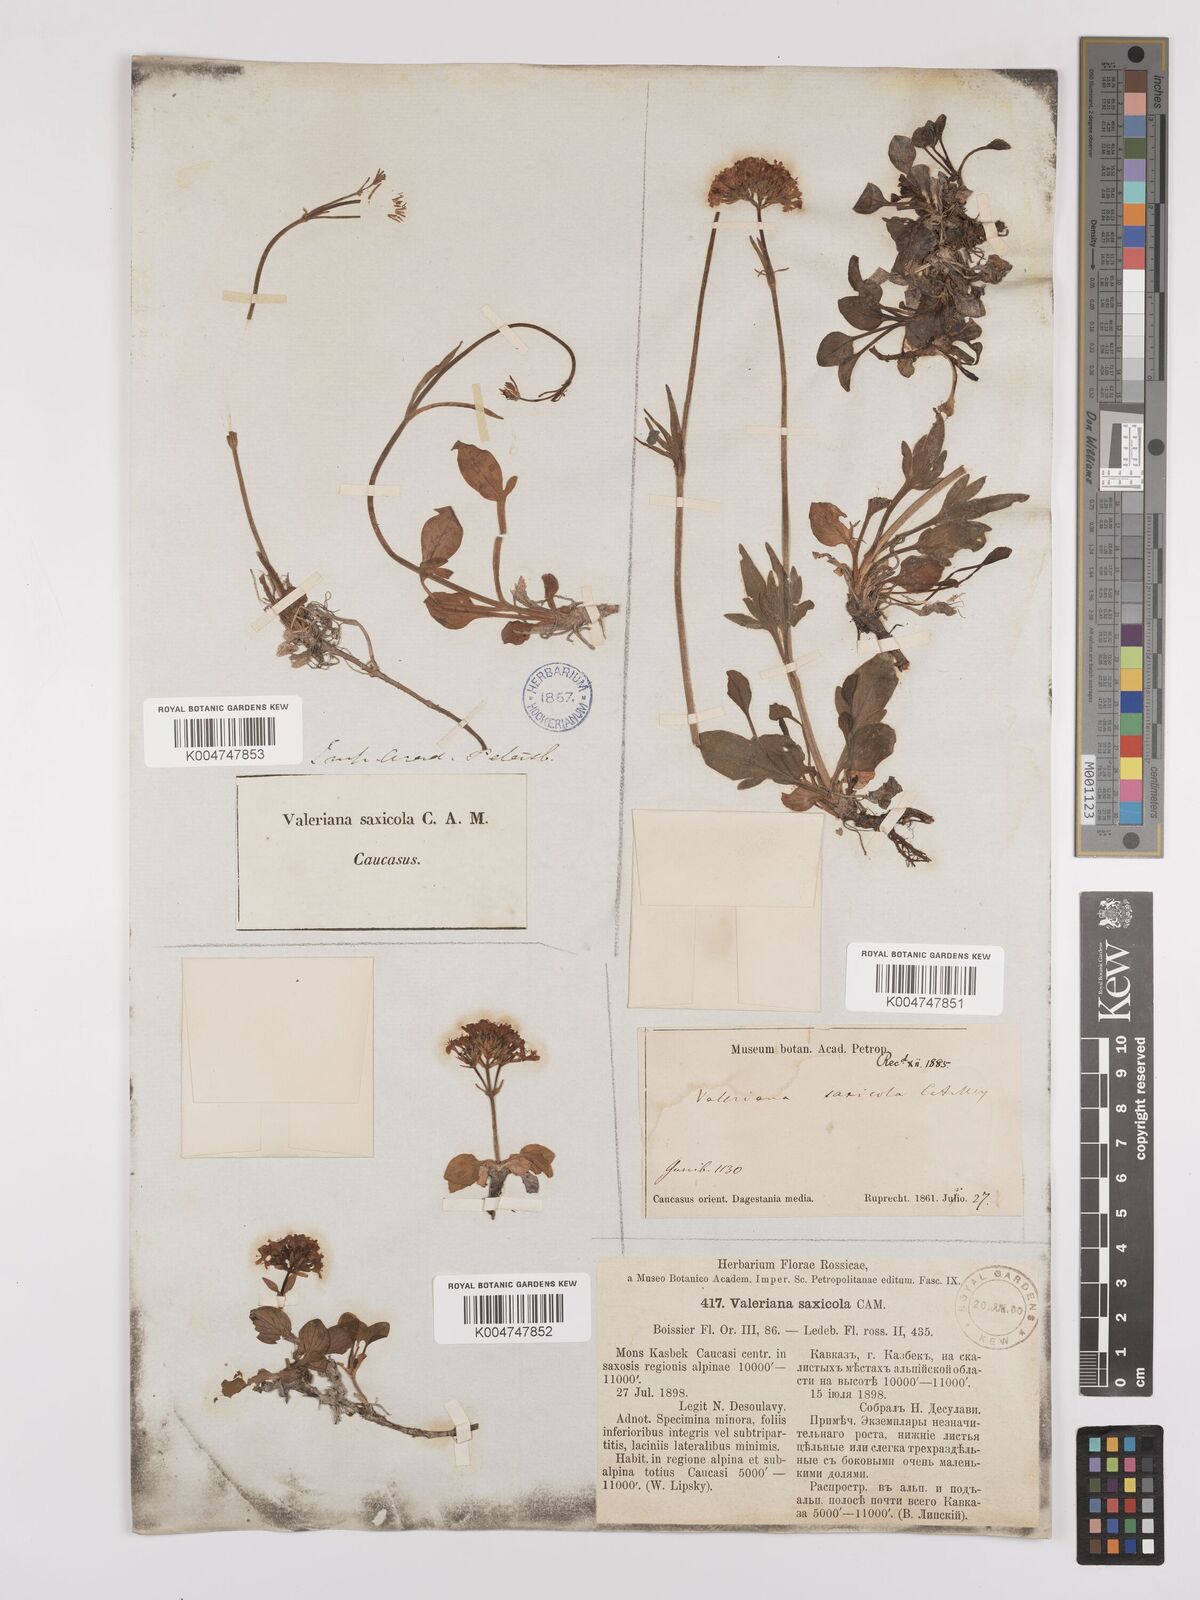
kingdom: Plantae
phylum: Tracheophyta
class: Magnoliopsida
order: Dipsacales
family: Caprifoliaceae
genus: Valeriana
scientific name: Valeriana saxicola
